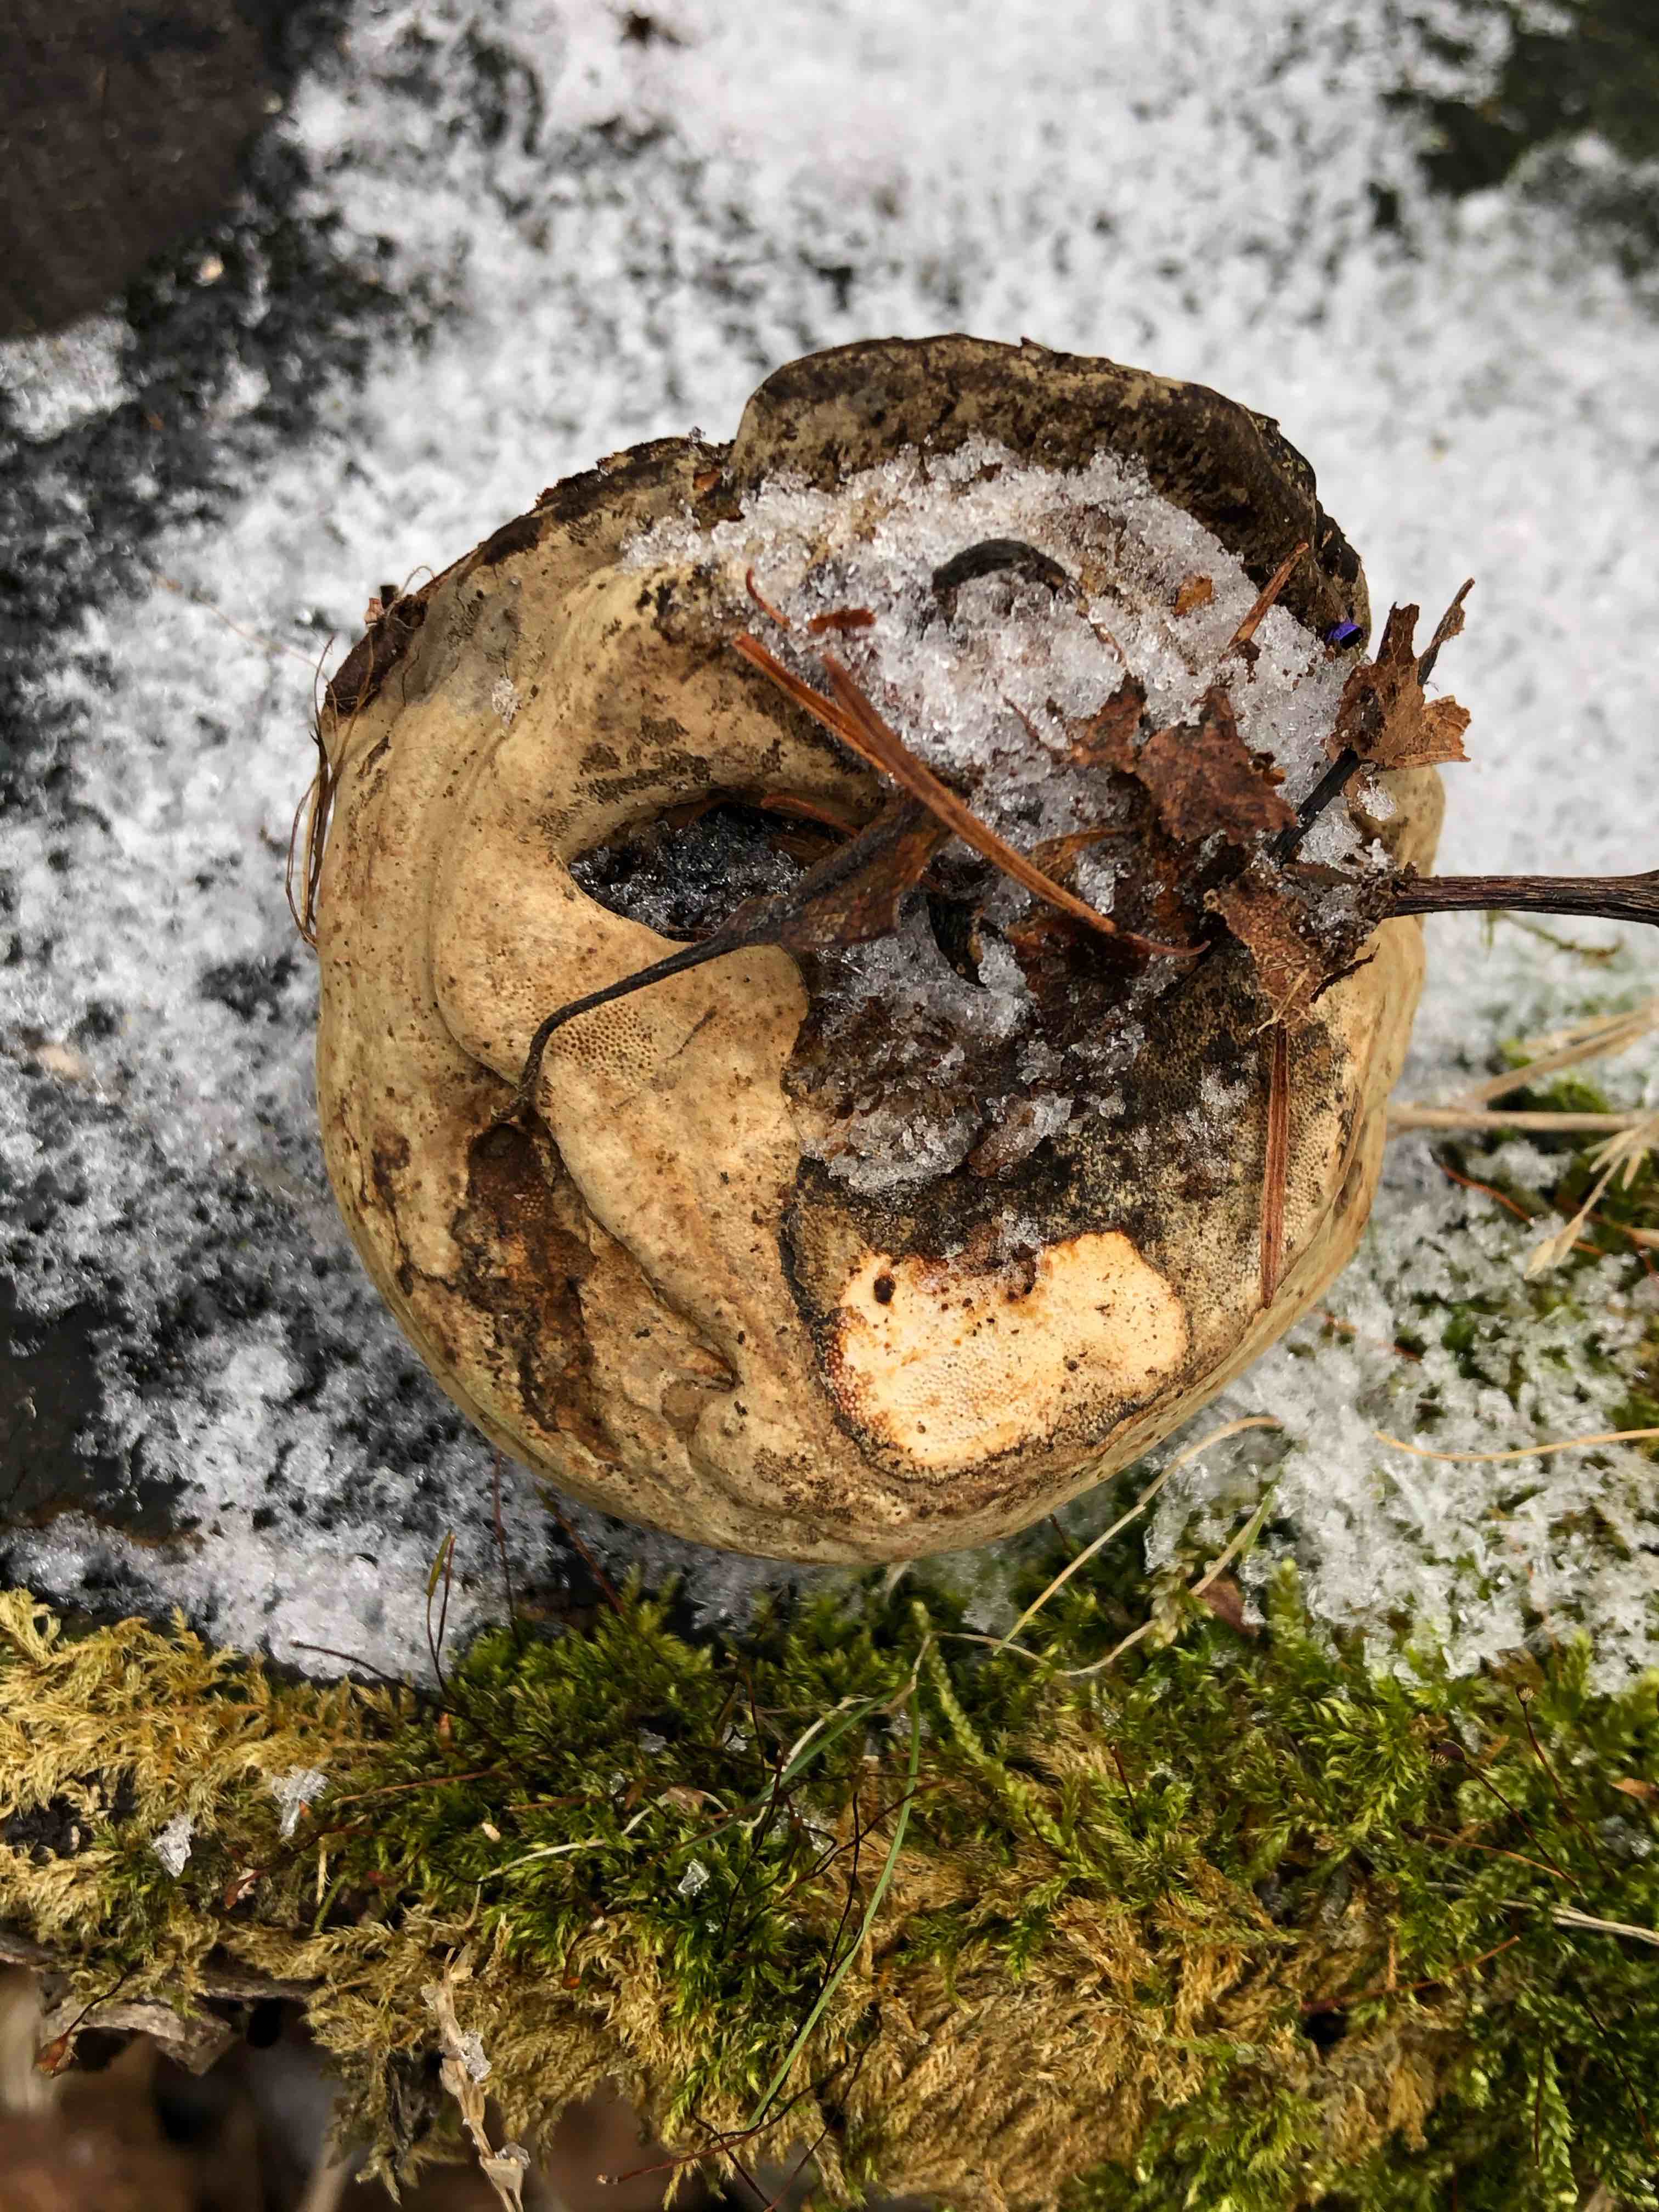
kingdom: Fungi
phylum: Basidiomycota
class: Agaricomycetes
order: Polyporales
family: Polyporaceae
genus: Ganoderma
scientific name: Ganoderma applanatum
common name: flad lakporesvamp
